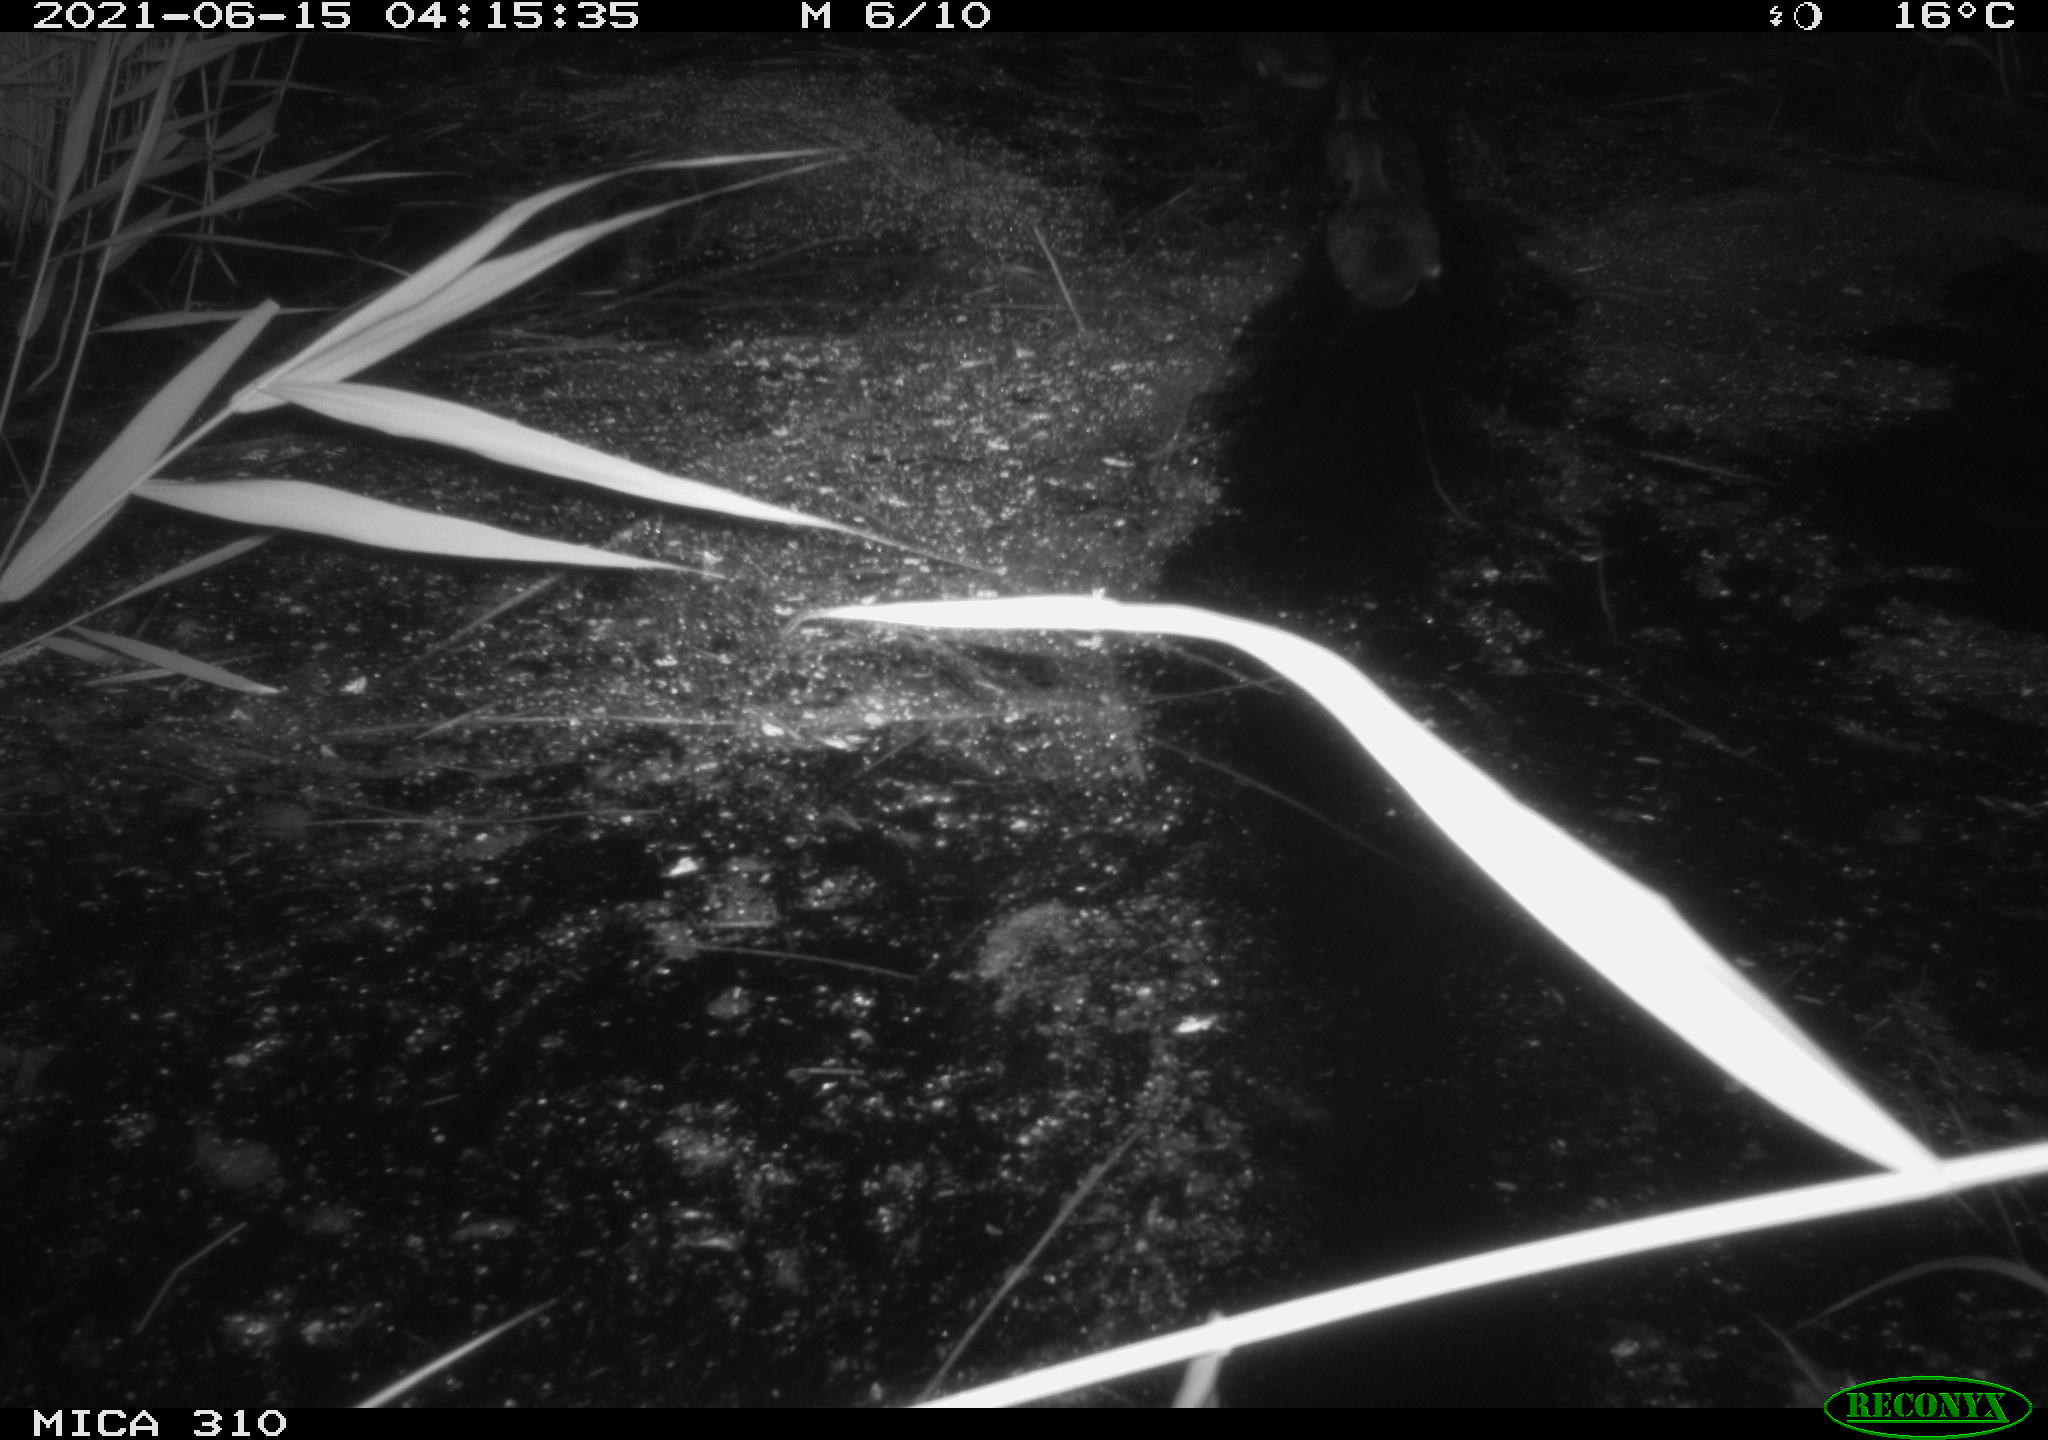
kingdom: Animalia
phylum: Chordata
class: Aves
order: Anseriformes
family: Anatidae
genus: Anas
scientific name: Anas
